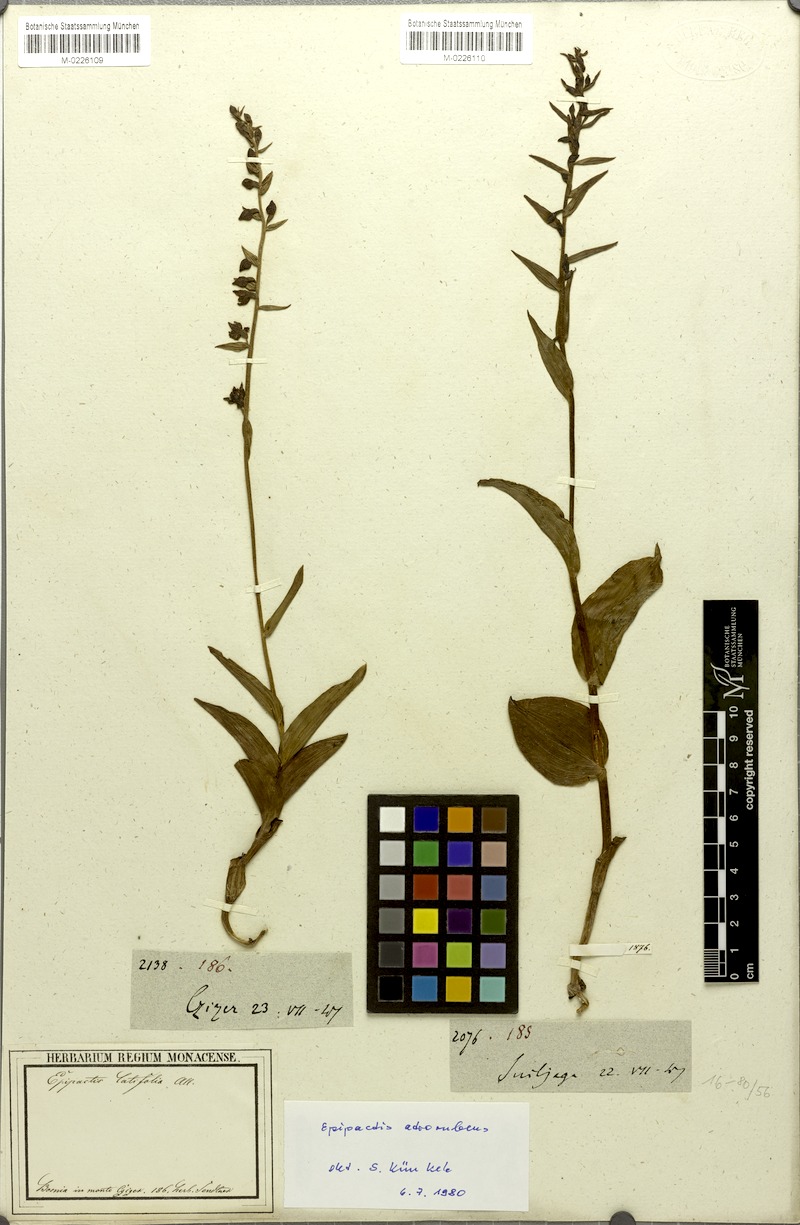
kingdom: Plantae
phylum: Tracheophyta
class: Liliopsida
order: Asparagales
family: Orchidaceae
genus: Epipactis
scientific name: Epipactis atrorubens
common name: Dark-red helleborine
